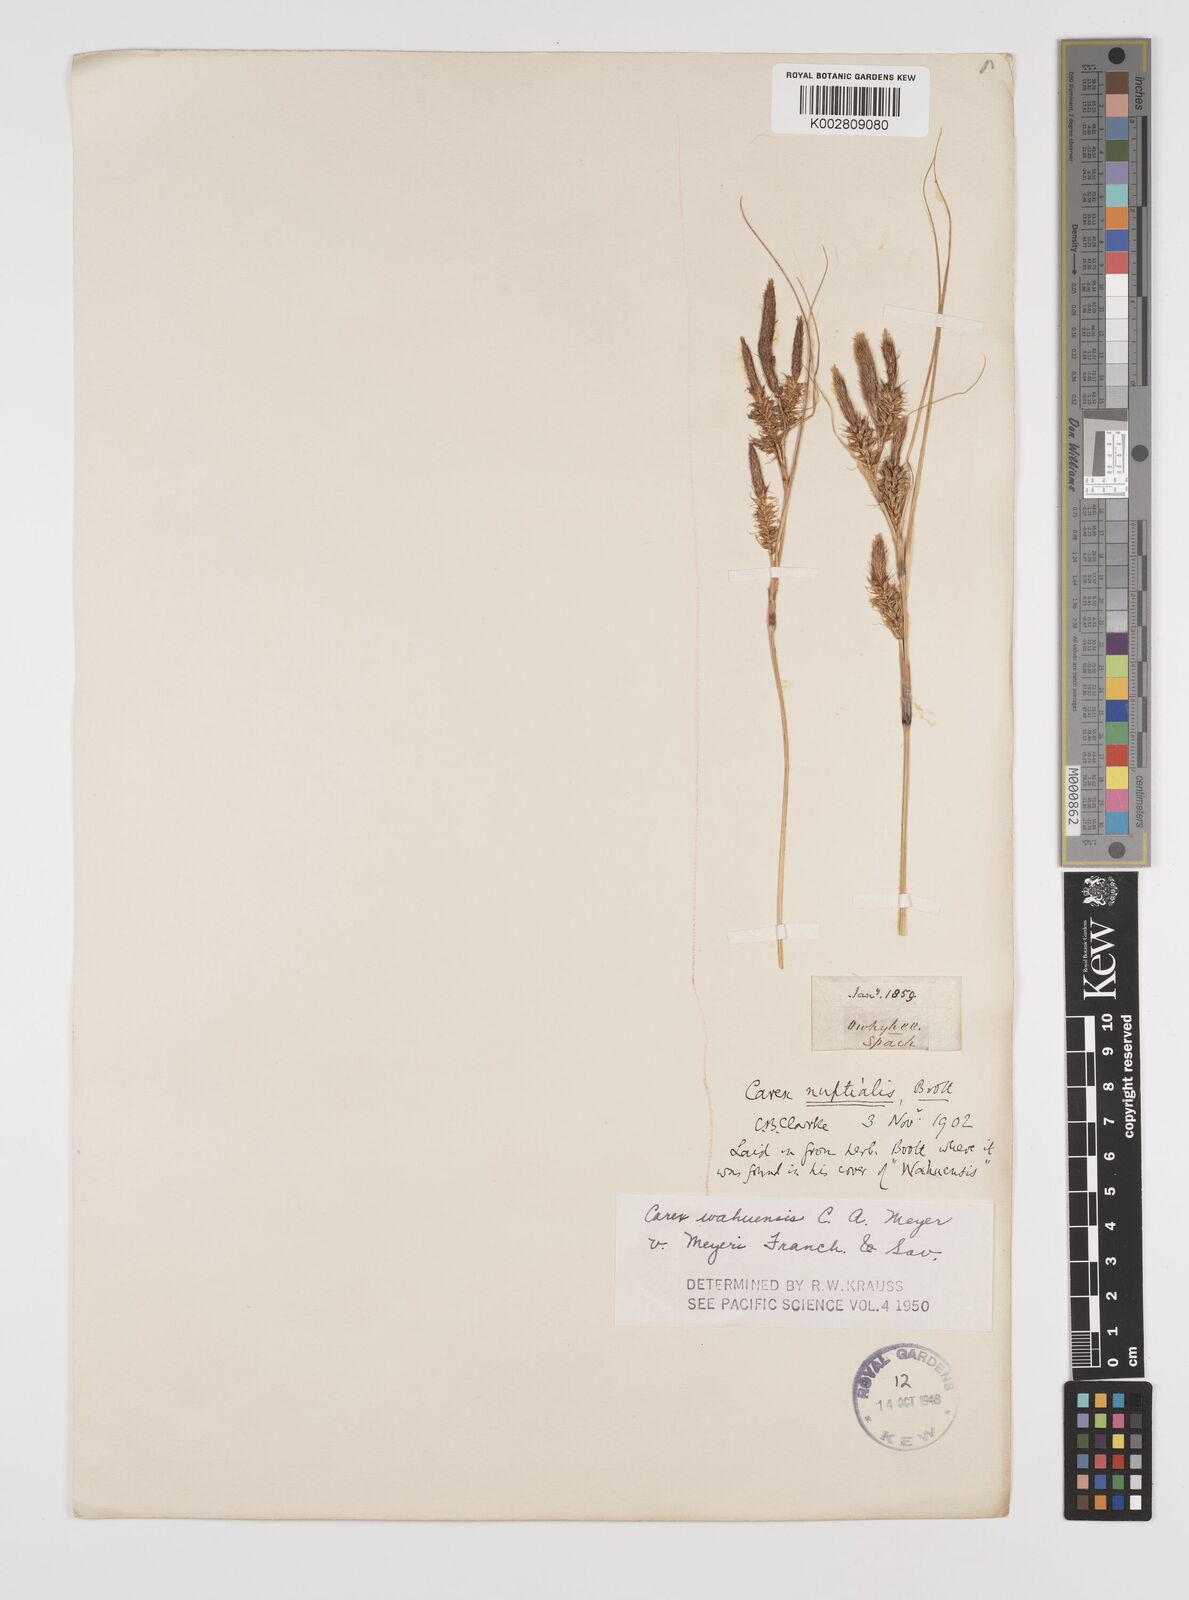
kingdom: Plantae
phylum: Tracheophyta
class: Liliopsida
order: Poales
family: Cyperaceae
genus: Carex
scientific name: Carex wahuensis
